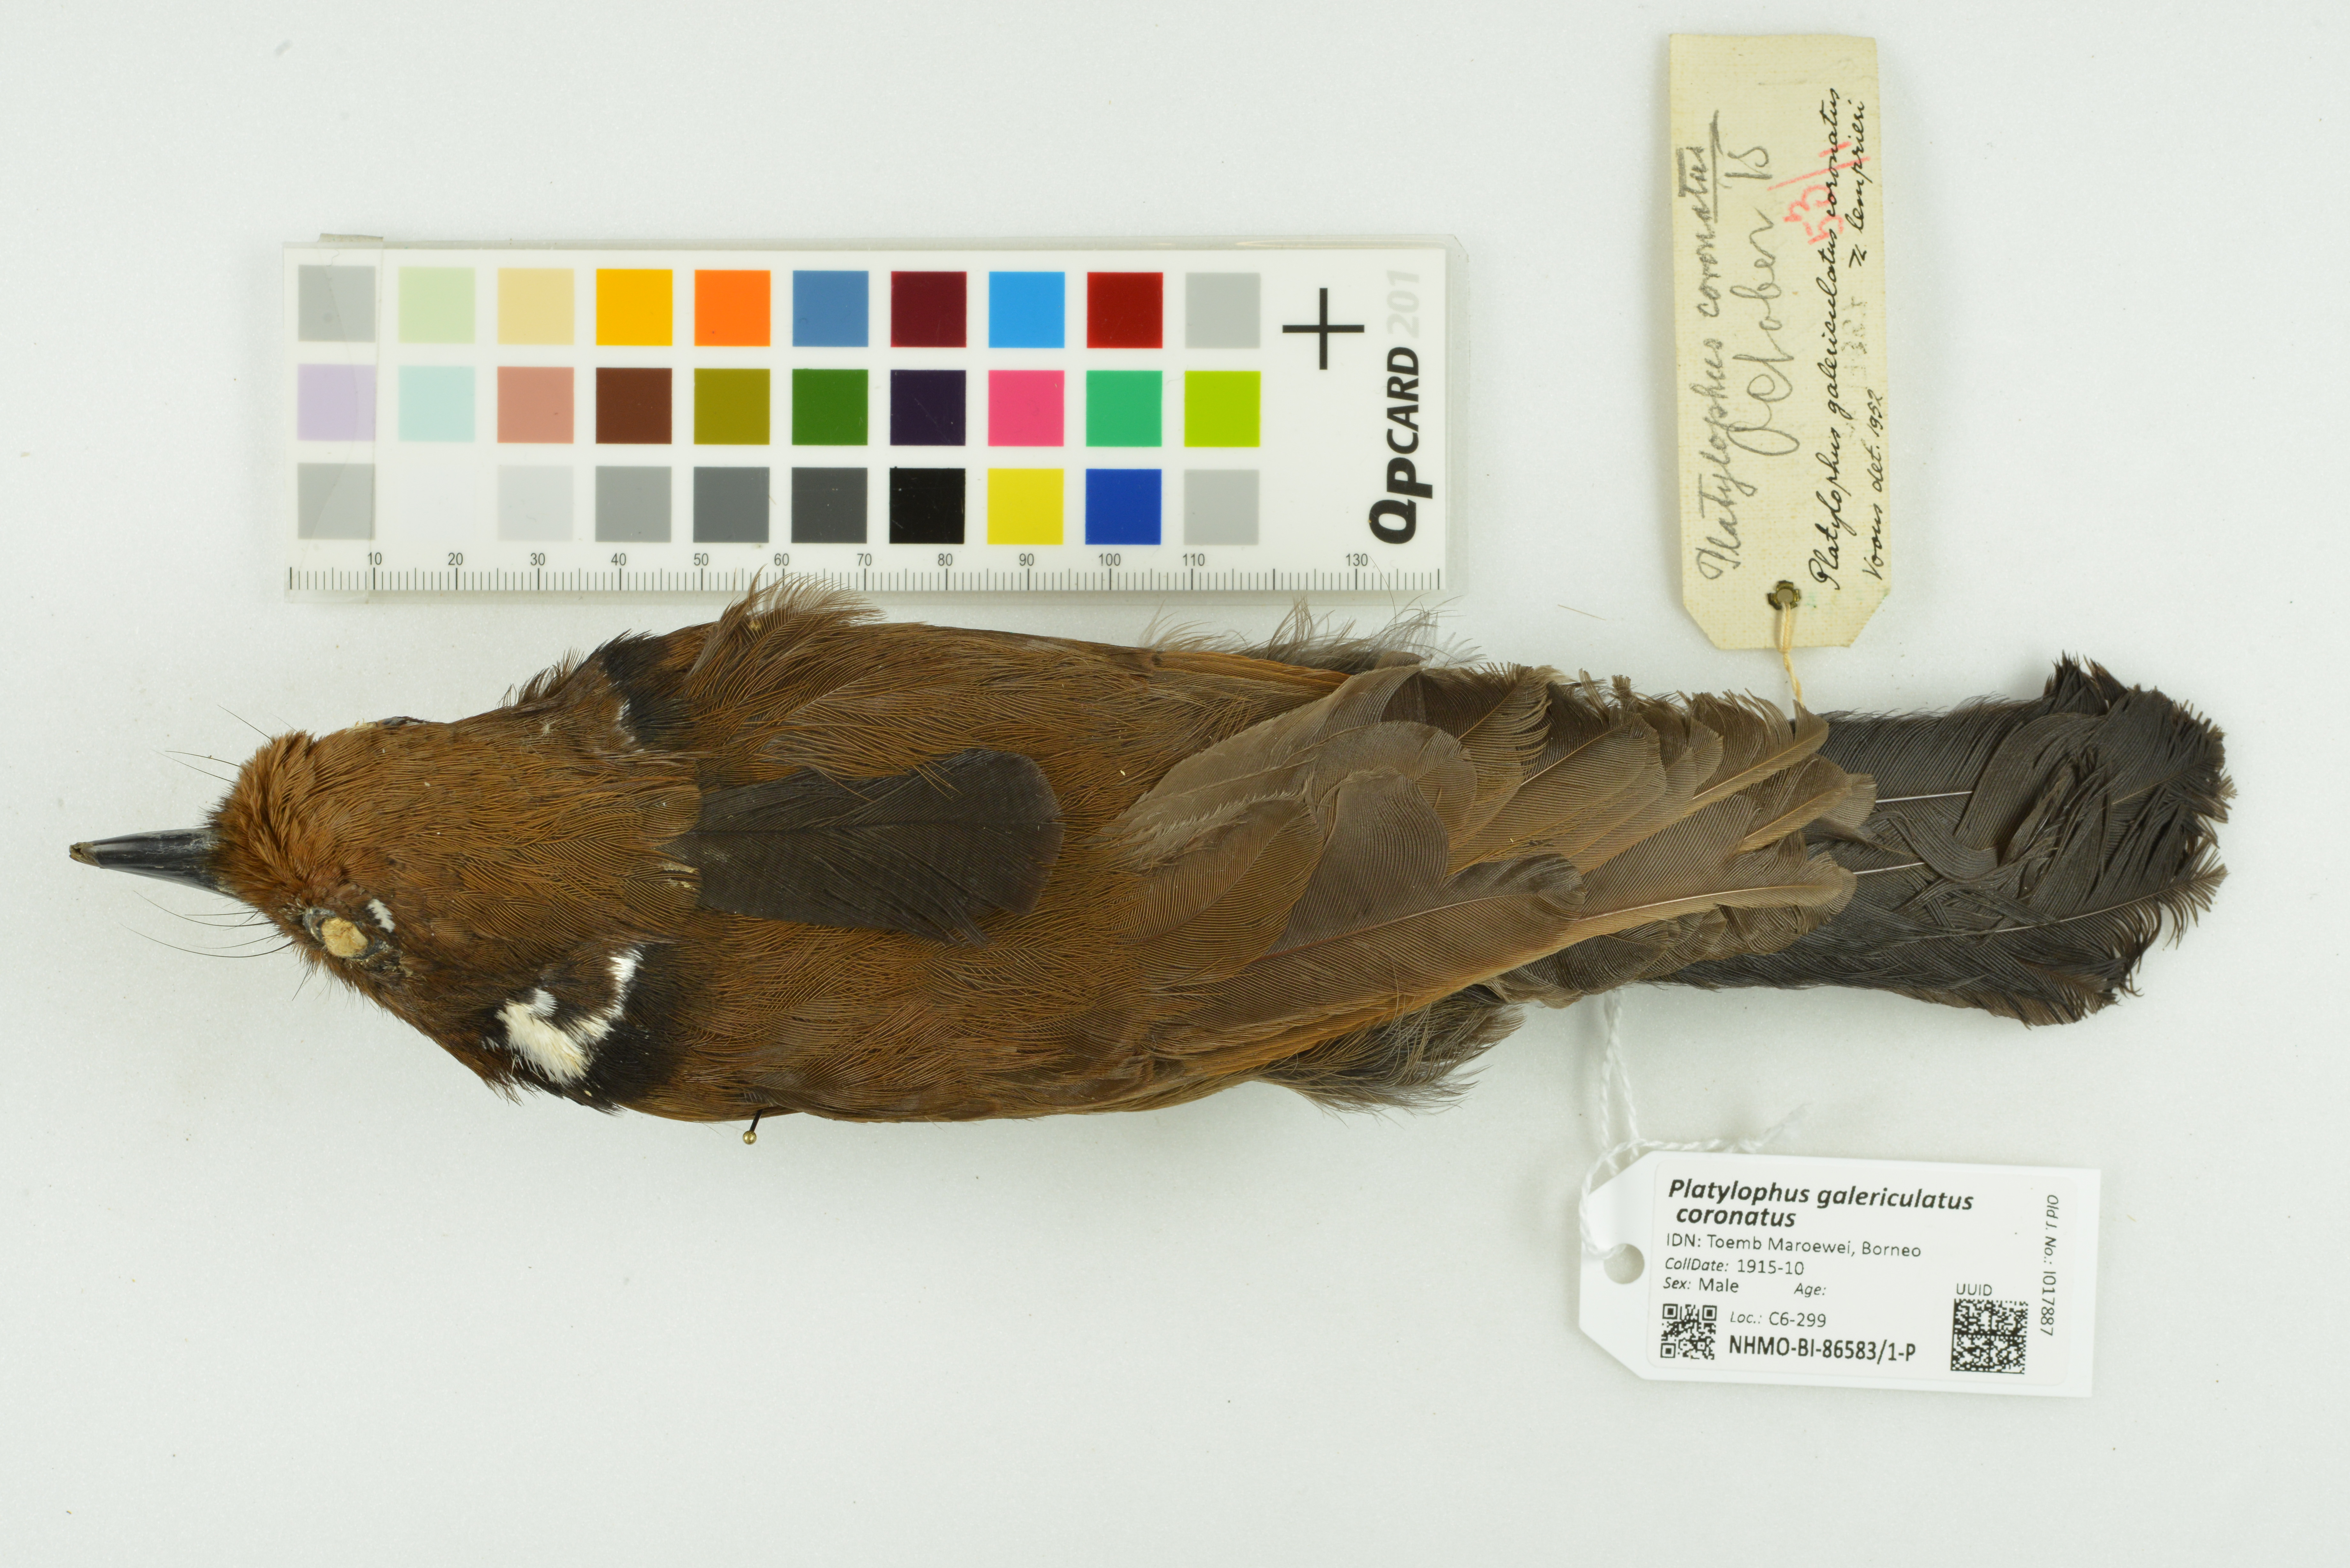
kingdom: Animalia
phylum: Chordata
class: Aves
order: Passeriformes
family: Corvidae
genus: Platylophus
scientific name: Platylophus galericulatus
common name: Crested jay
